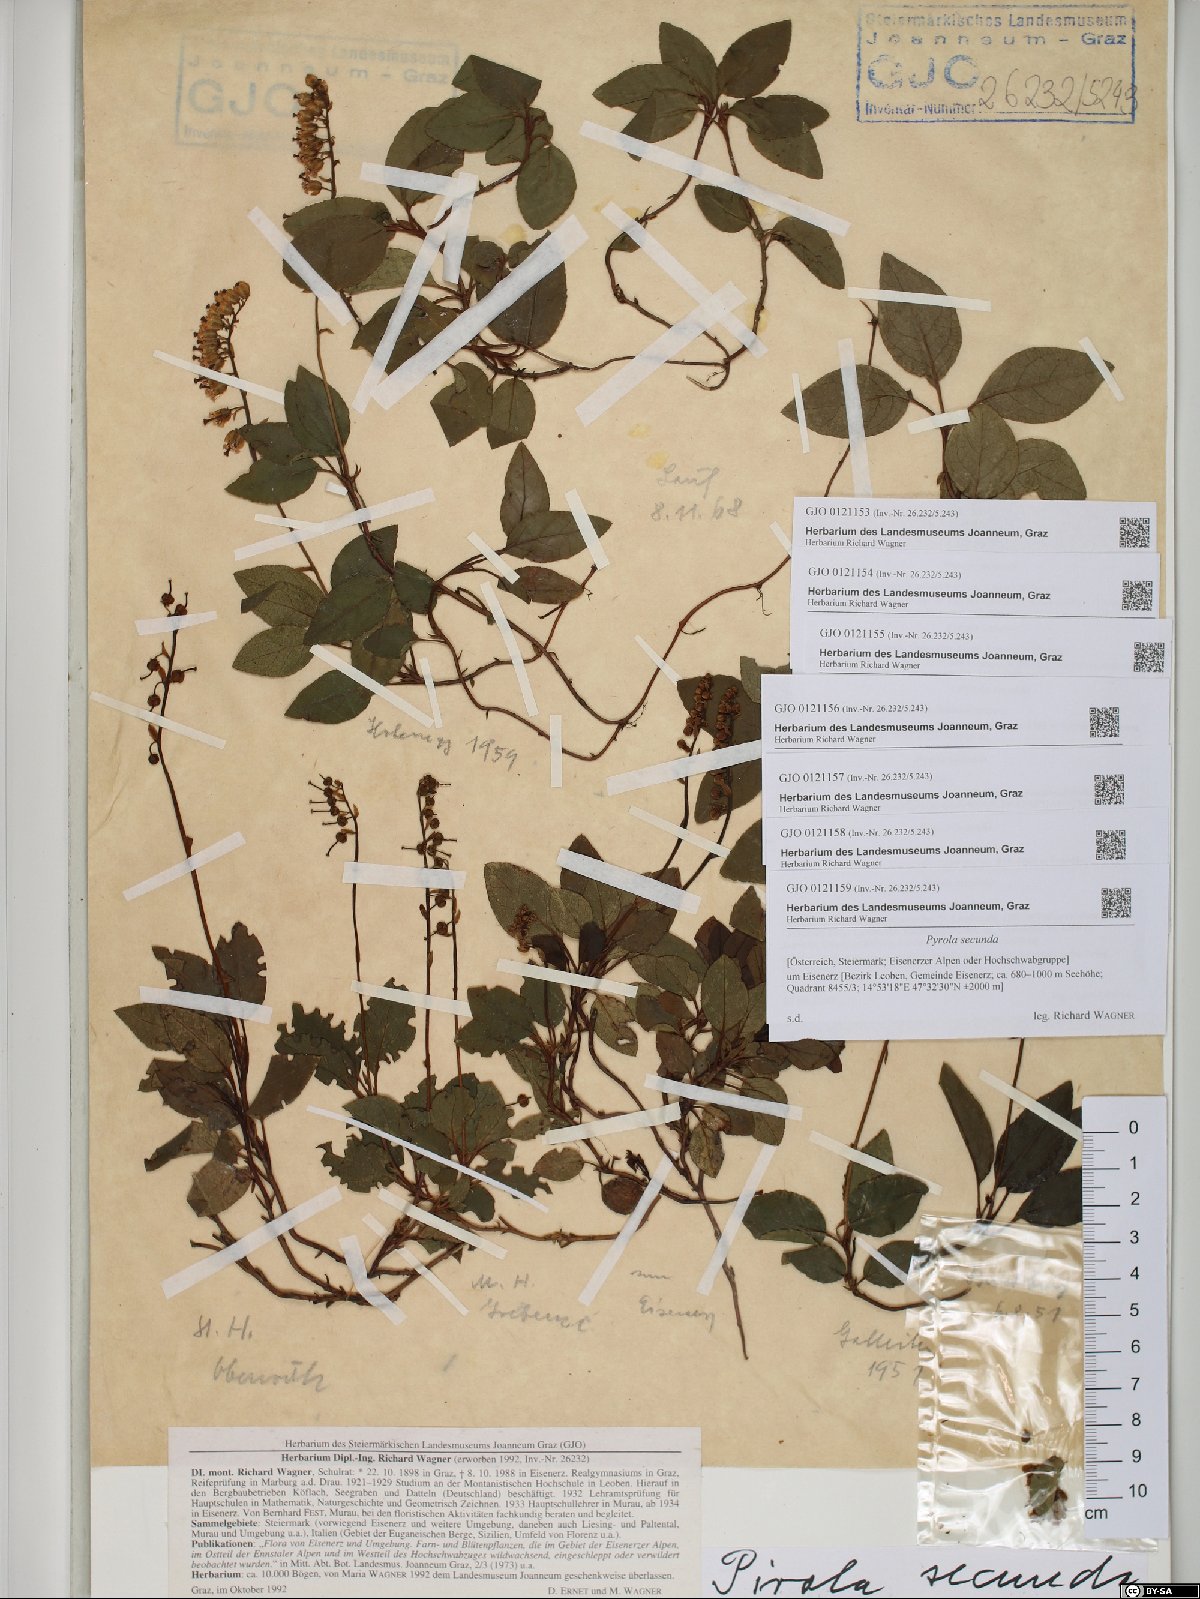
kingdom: Plantae
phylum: Tracheophyta
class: Magnoliopsida
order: Ericales
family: Ericaceae
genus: Orthilia
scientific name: Orthilia secunda
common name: One-sided orthilia
